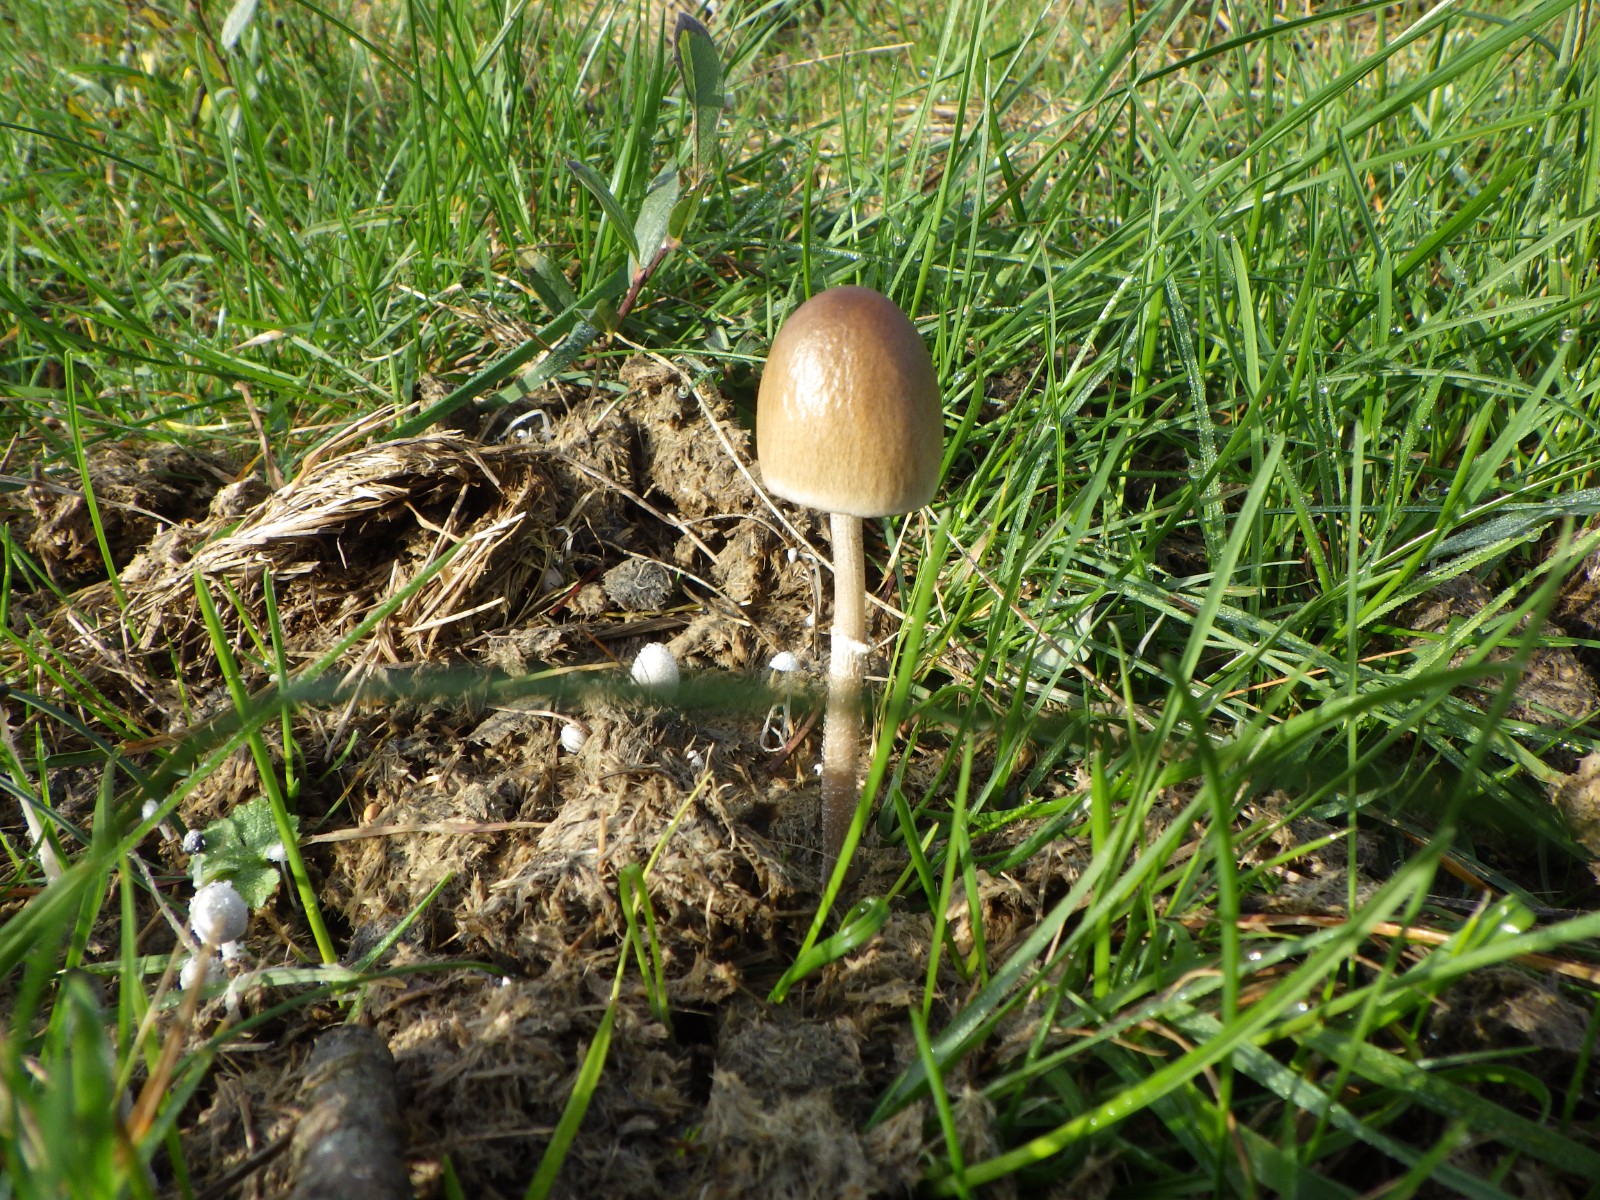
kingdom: Fungi
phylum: Basidiomycota
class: Agaricomycetes
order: Agaricales
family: Bolbitiaceae
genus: Panaeolus
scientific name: Panaeolus semiovatus
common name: ring-glanshat
